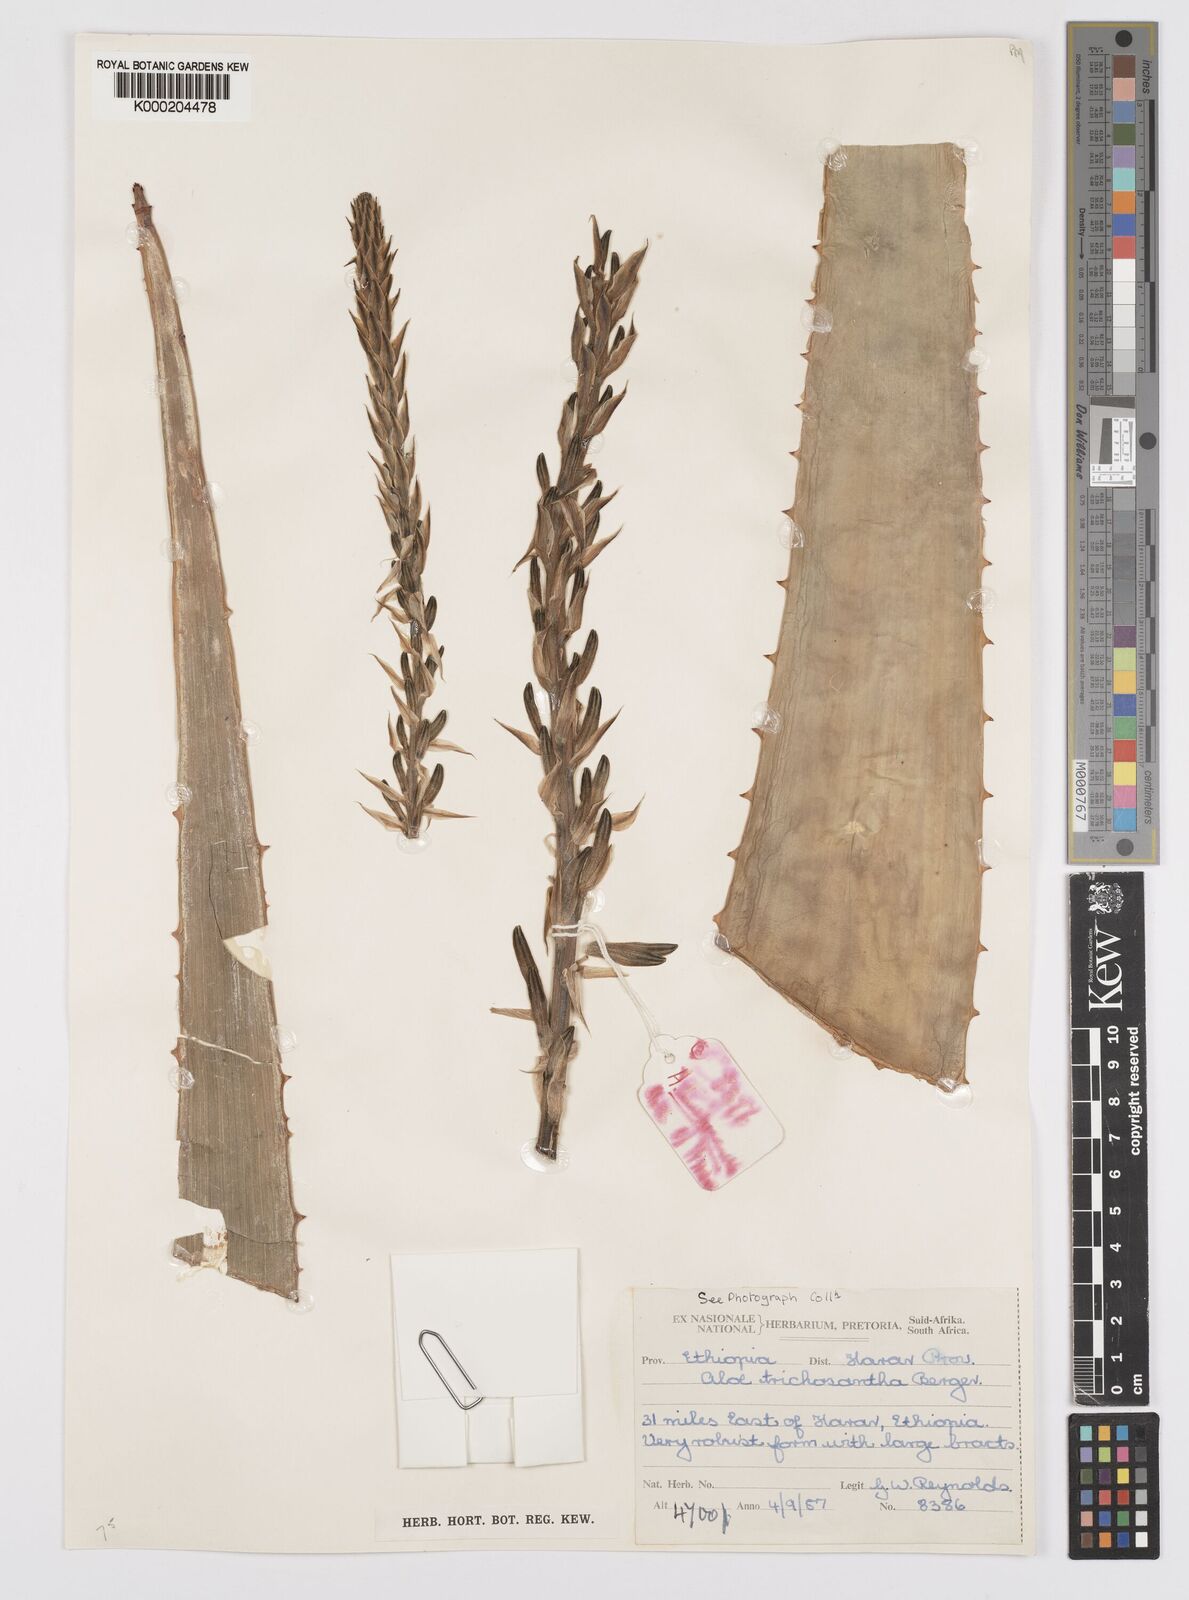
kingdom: Plantae
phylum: Tracheophyta
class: Liliopsida
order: Asparagales
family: Asphodelaceae
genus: Aloe
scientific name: Aloe trichosantha
